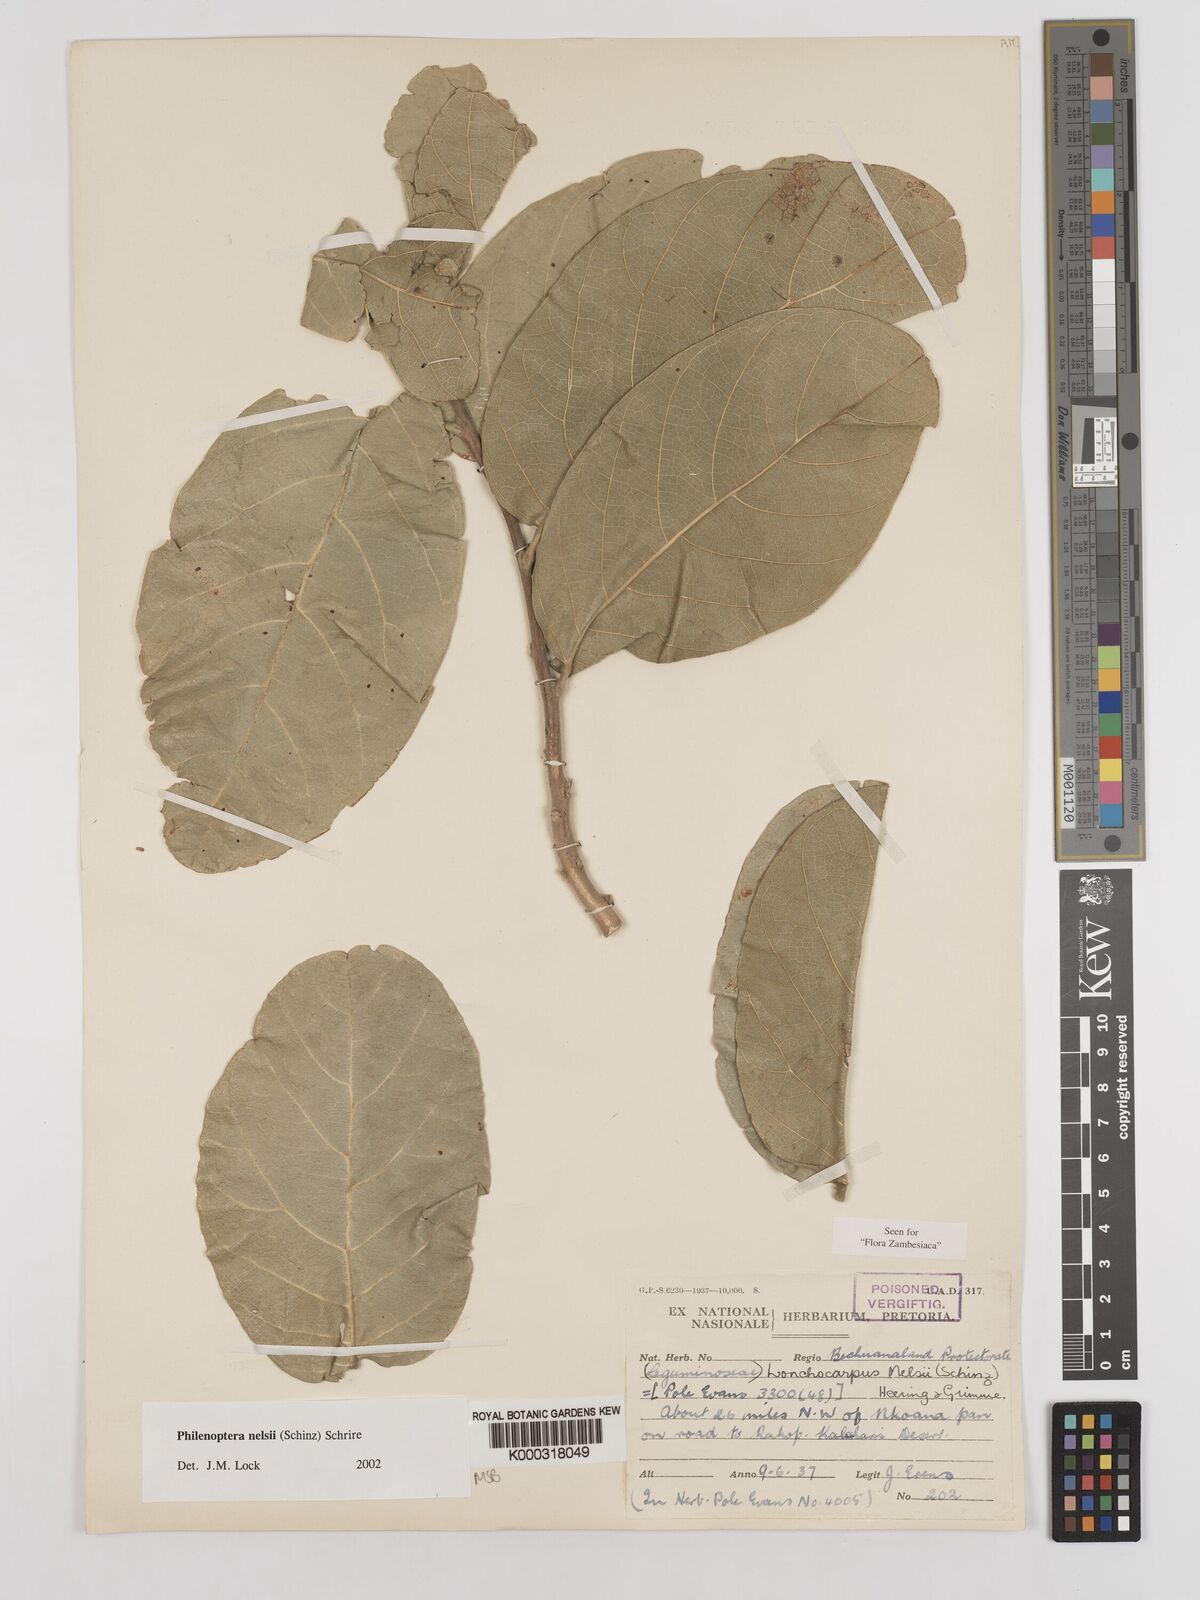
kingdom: Plantae
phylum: Tracheophyta
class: Magnoliopsida
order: Fabales
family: Fabaceae
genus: Philenoptera
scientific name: Philenoptera nelsii
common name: Kalahari apple-leaf
